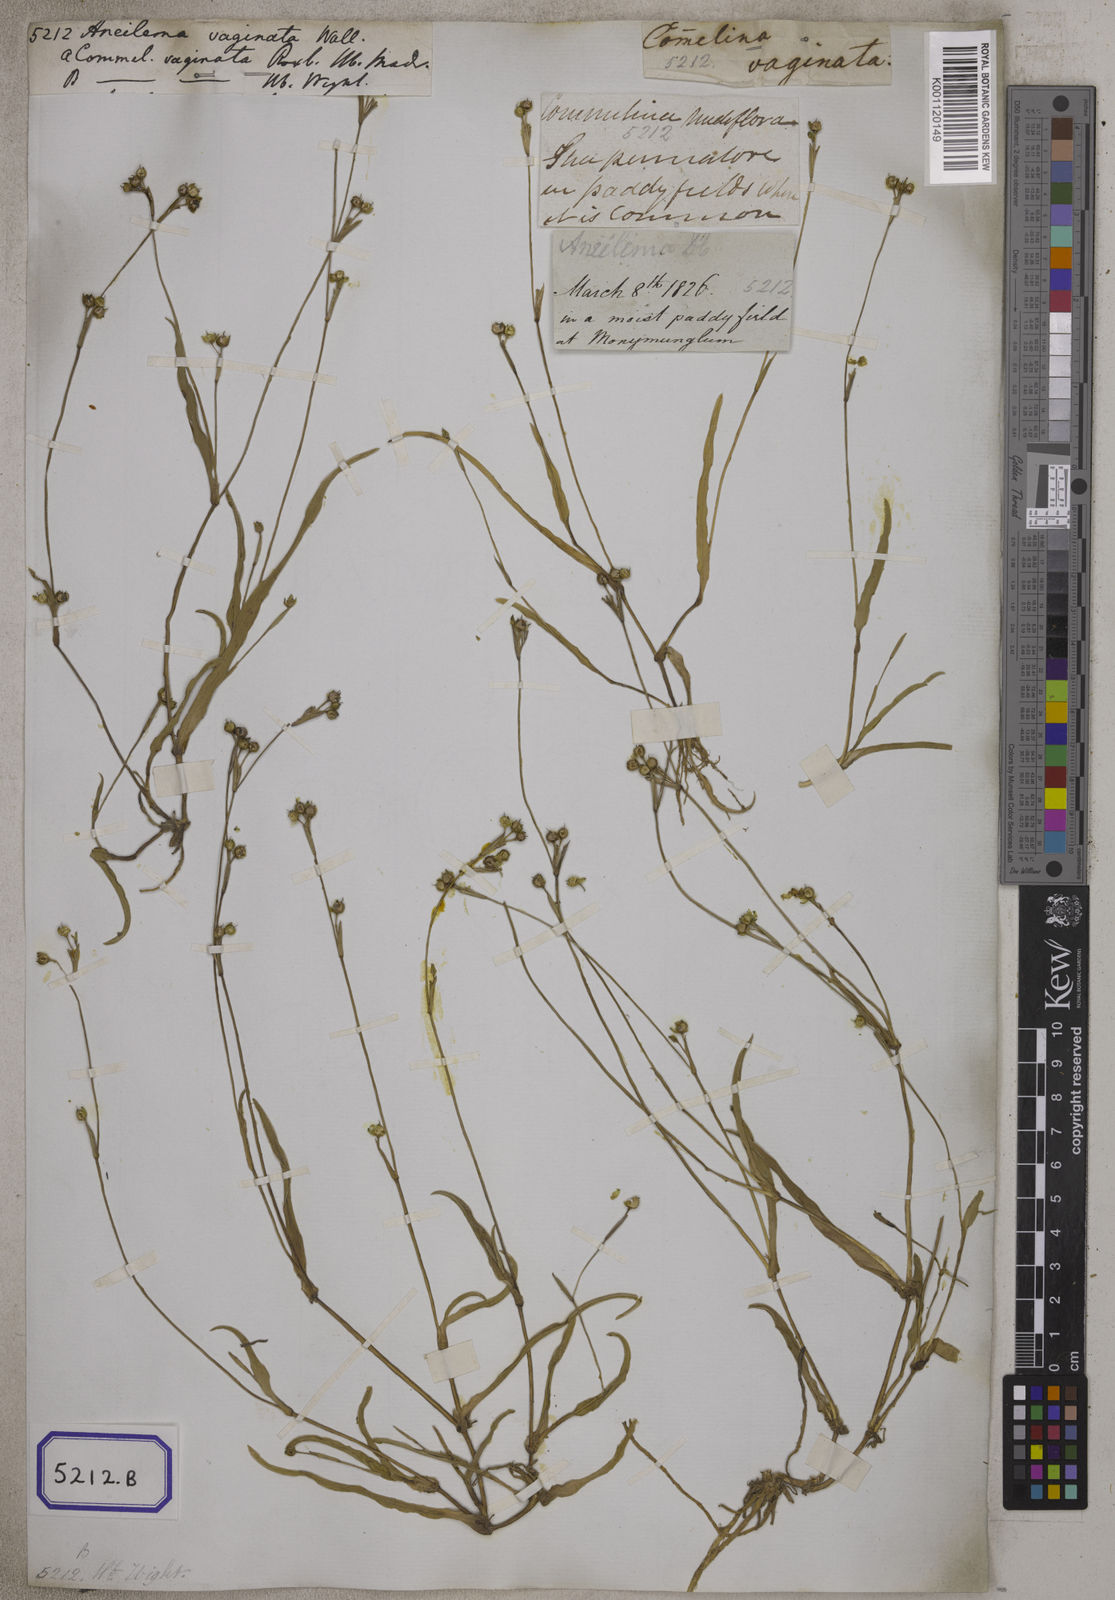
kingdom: Plantae
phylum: Tracheophyta
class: Liliopsida
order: Commelinales
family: Commelinaceae
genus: Murdannia
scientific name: Murdannia vaginata
